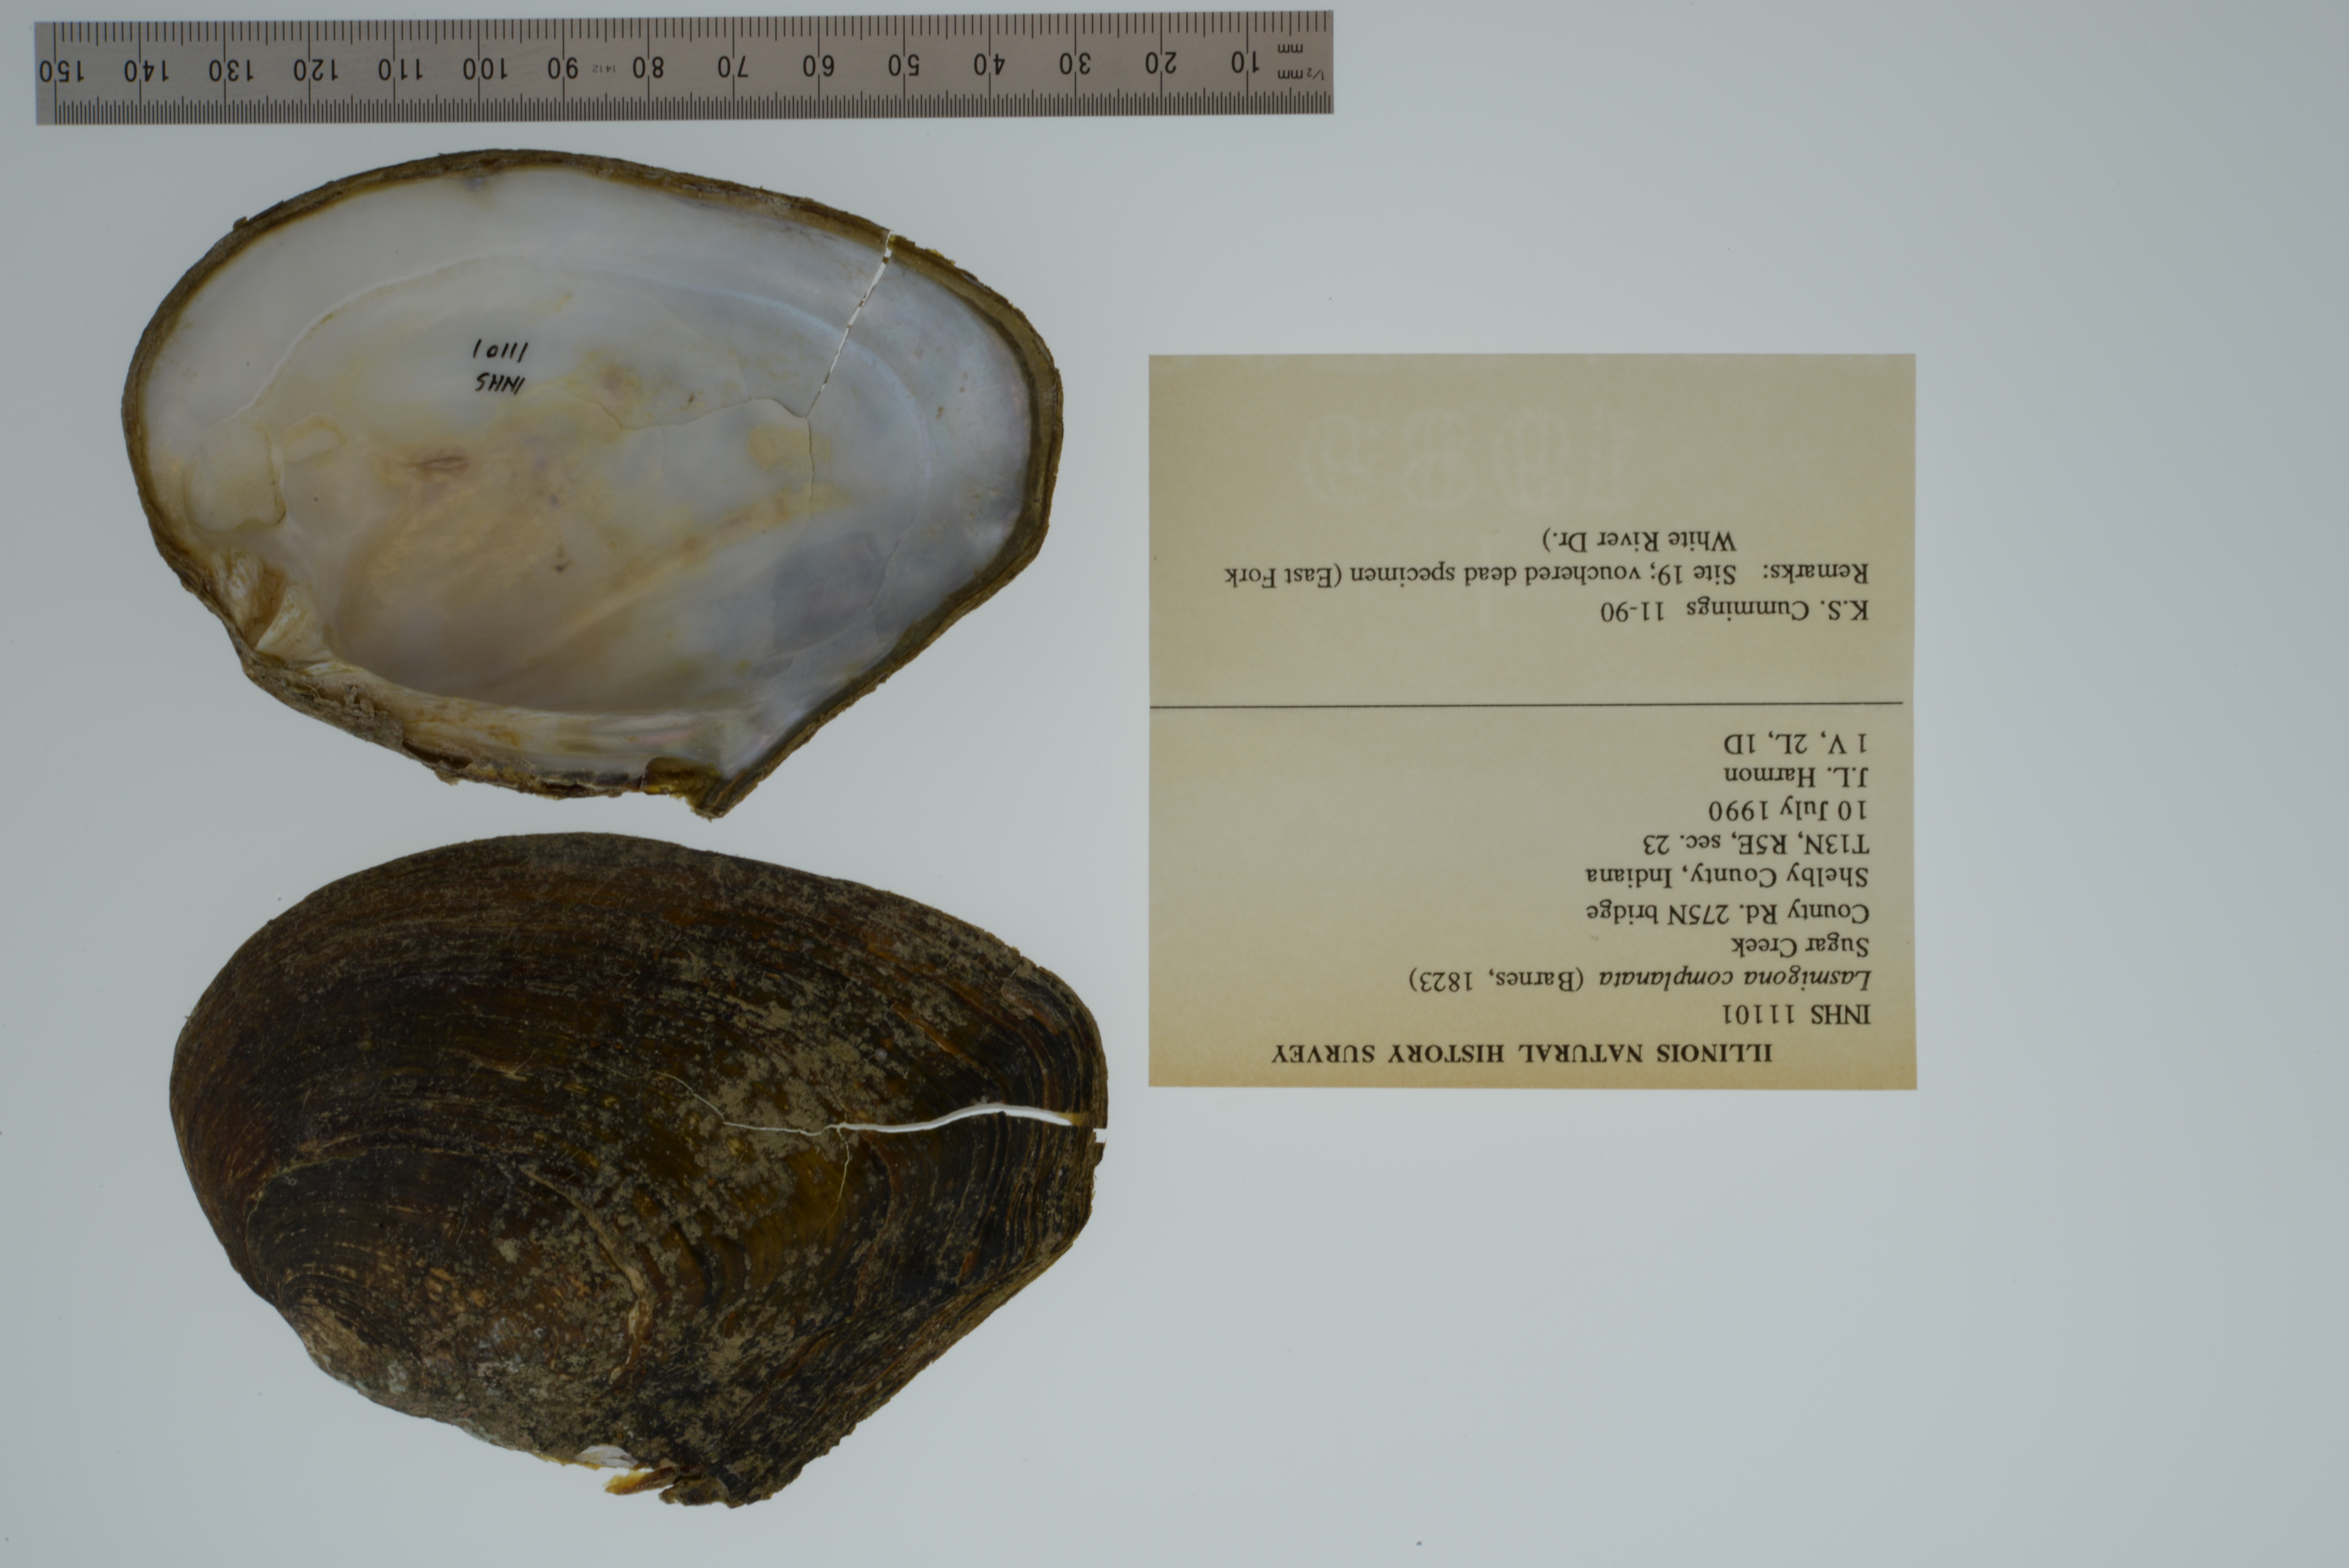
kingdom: Animalia
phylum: Mollusca
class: Bivalvia
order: Unionida
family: Unionidae
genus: Lasmigona
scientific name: Lasmigona complanata
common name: White heelsplitter
